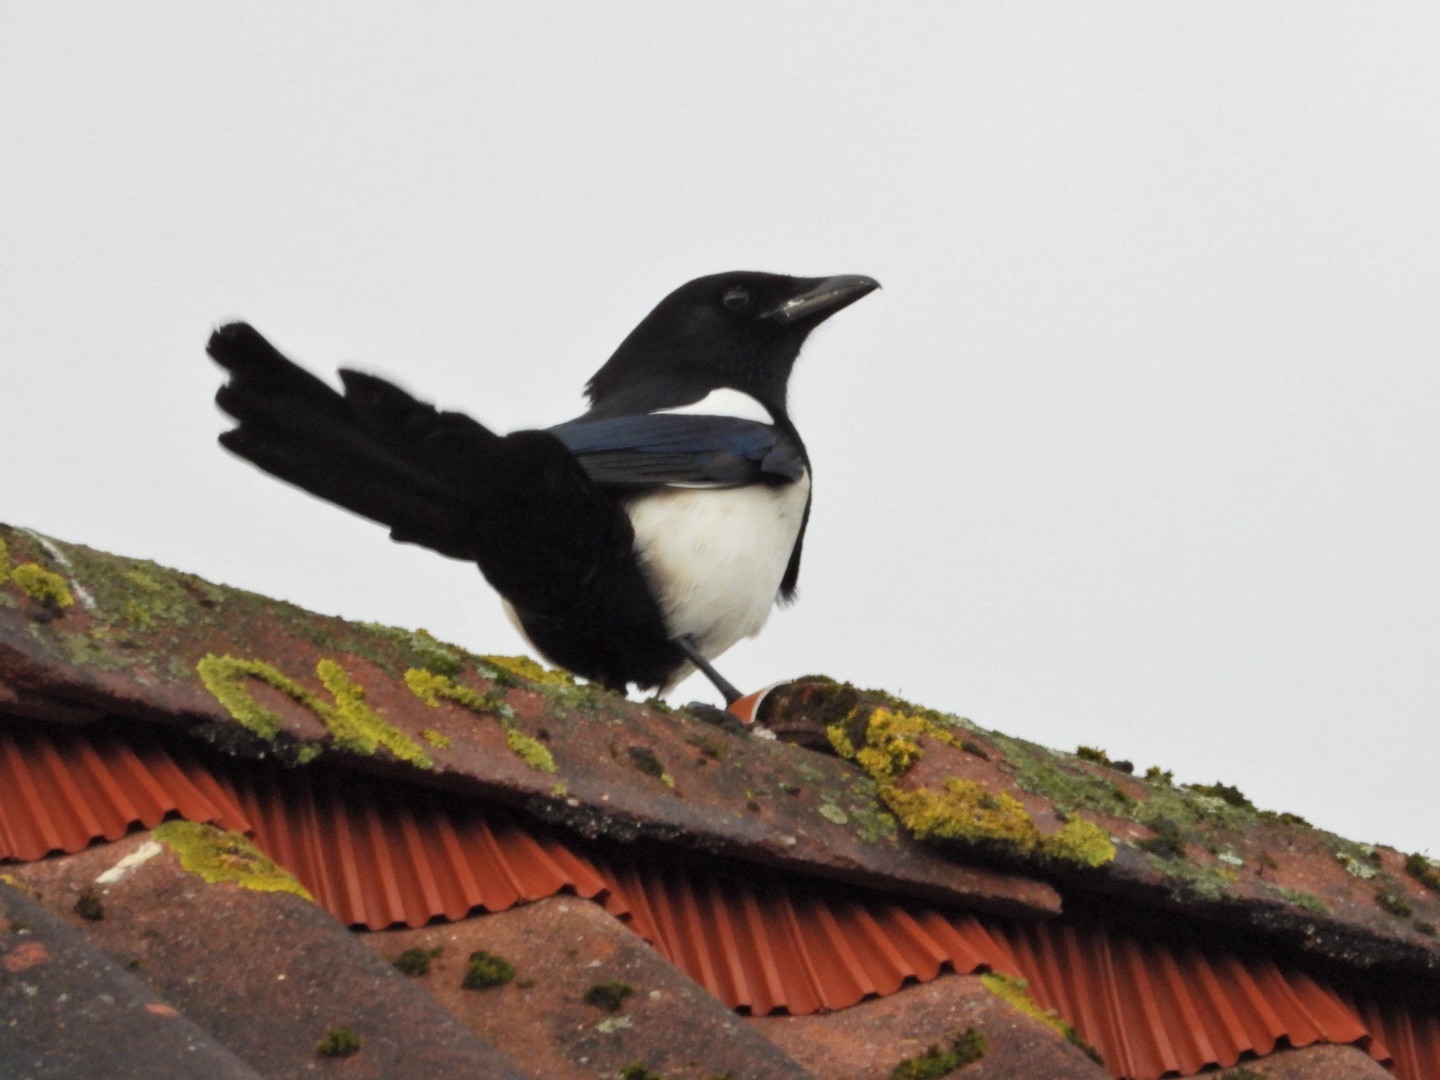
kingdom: Animalia
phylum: Chordata
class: Aves
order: Passeriformes
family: Corvidae
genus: Pica
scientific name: Pica pica
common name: Husskade
